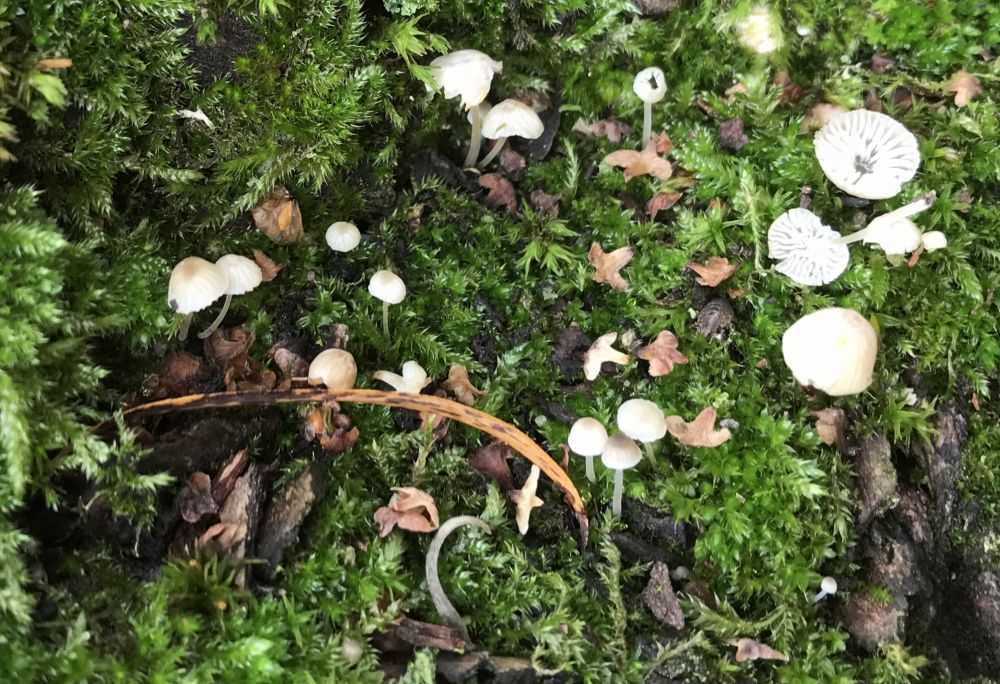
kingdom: Fungi
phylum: Basidiomycota
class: Agaricomycetes
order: Agaricales
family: Porotheleaceae
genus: Phloeomana
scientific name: Phloeomana
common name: huesvamp
